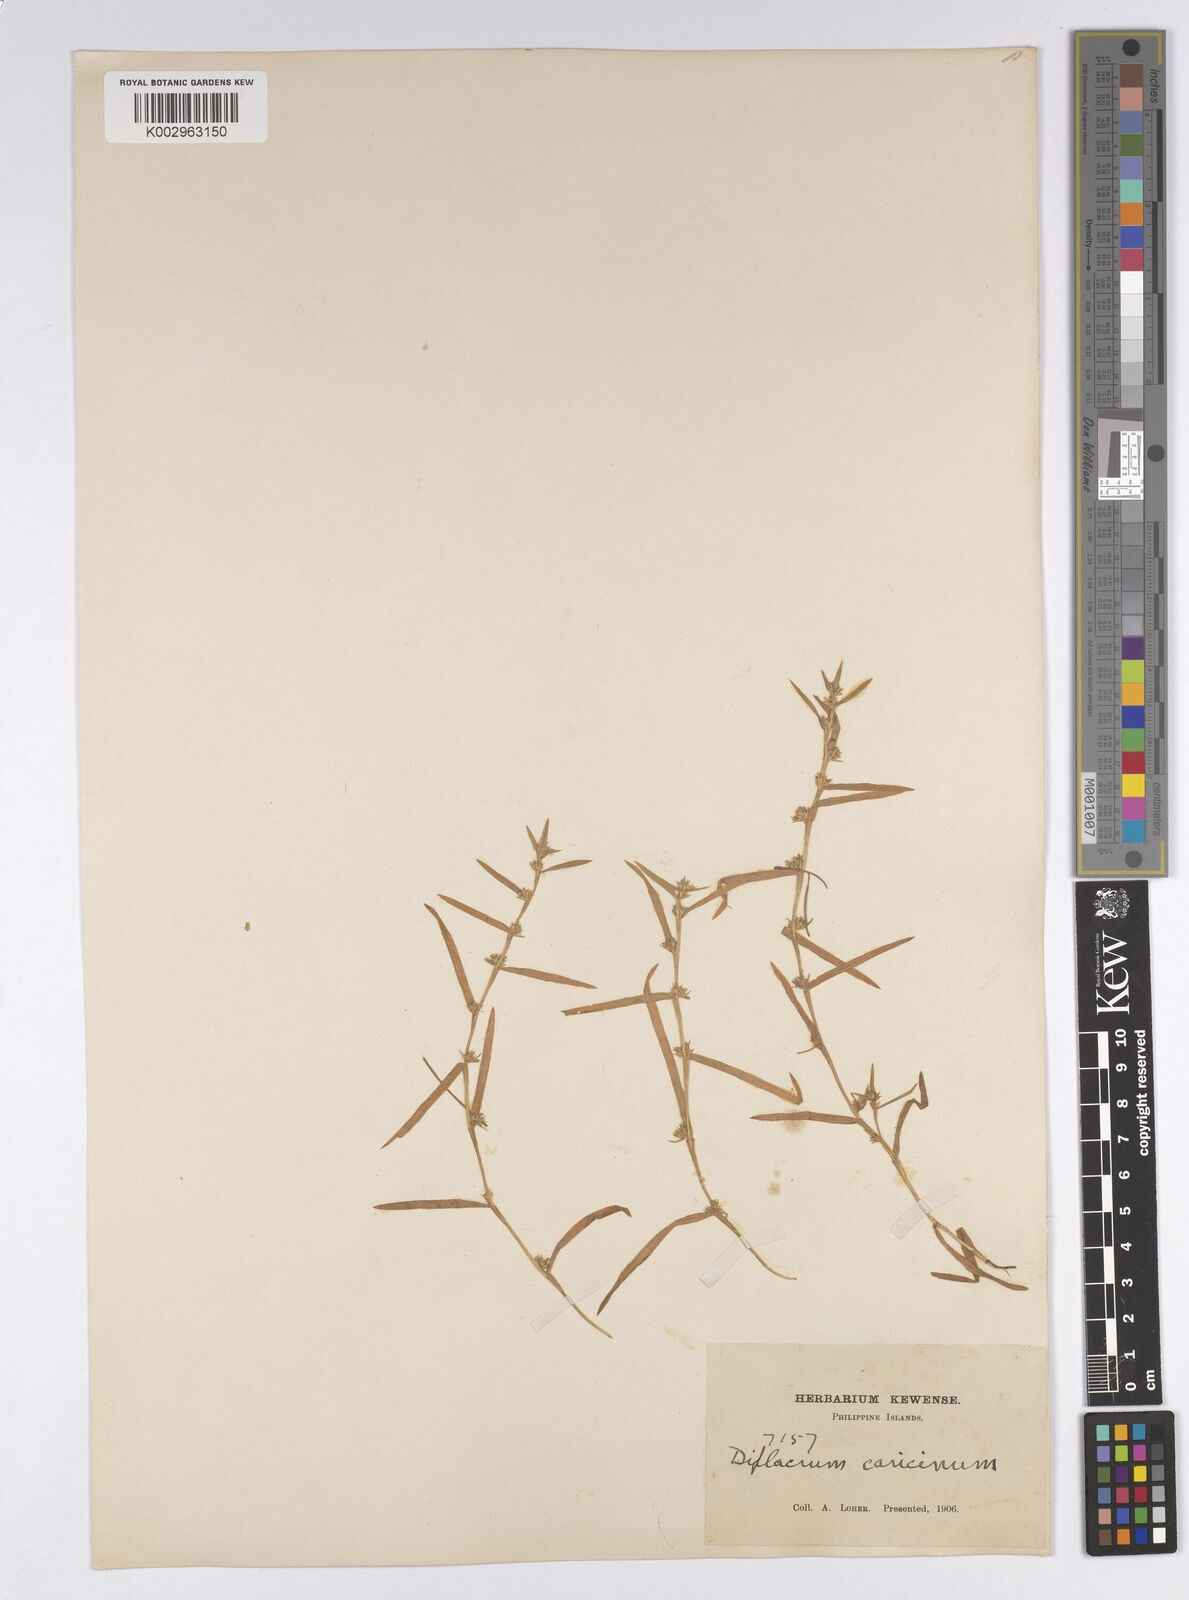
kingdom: Plantae
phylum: Tracheophyta
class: Liliopsida
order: Poales
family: Cyperaceae
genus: Diplacrum
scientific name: Diplacrum caricinum
